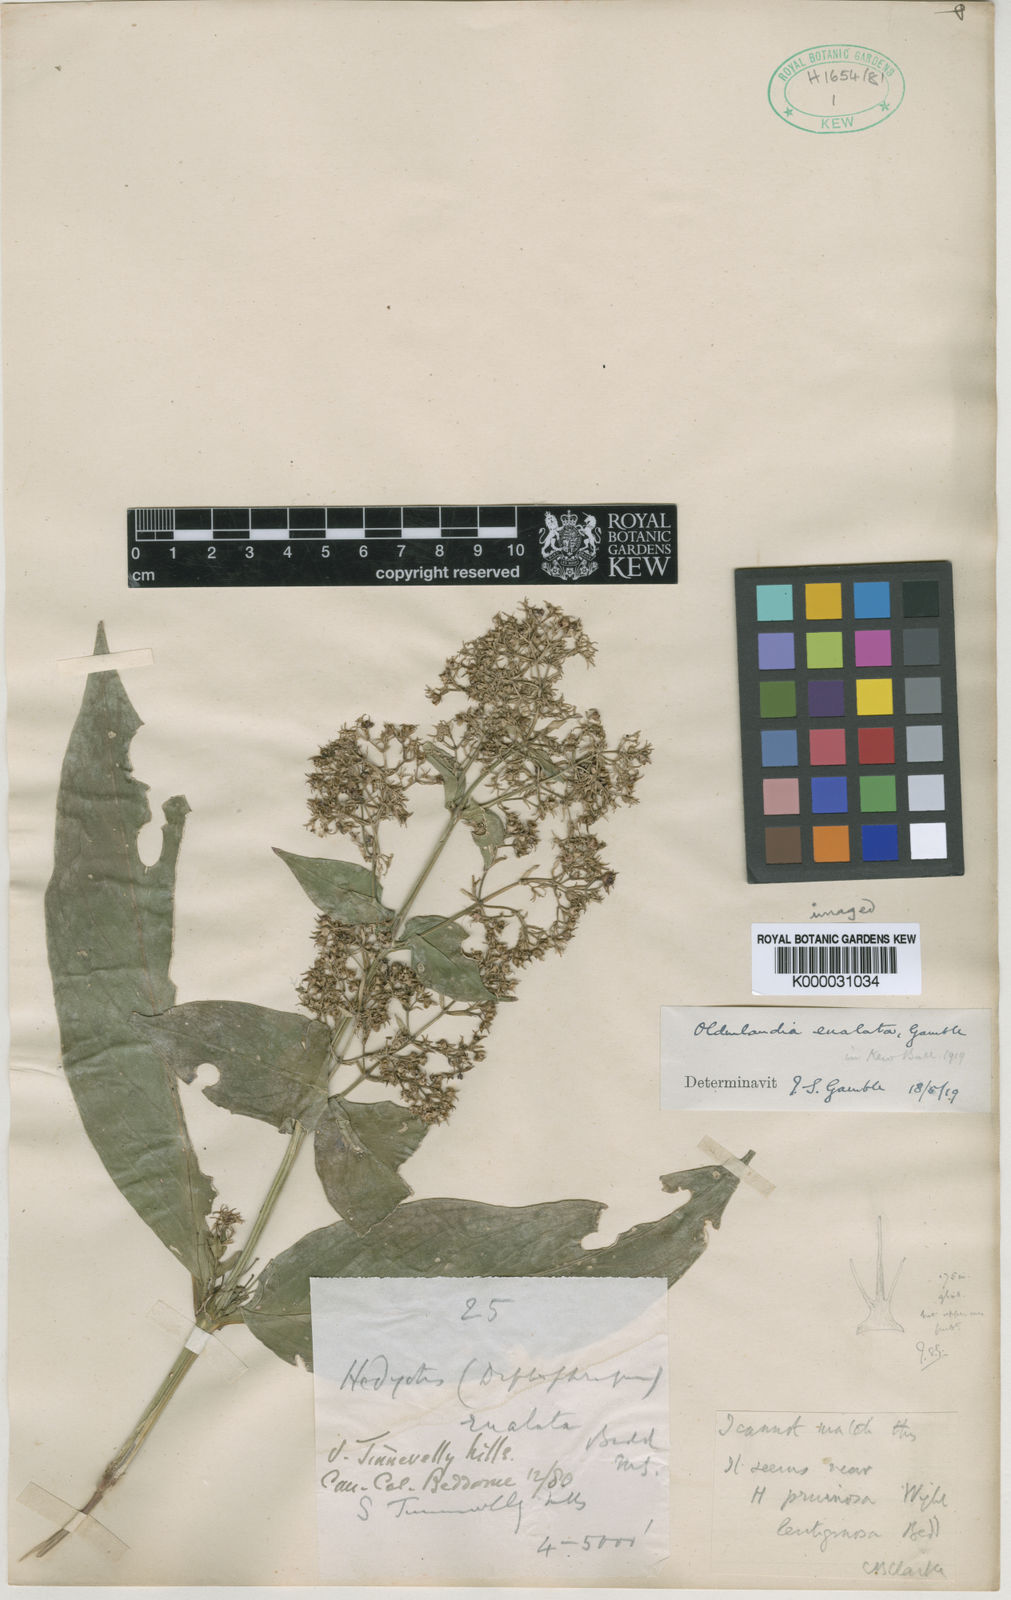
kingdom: Plantae
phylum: Tracheophyta
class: Magnoliopsida
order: Gentianales
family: Rubiaceae
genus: Hedyotis
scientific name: Hedyotis eualata
